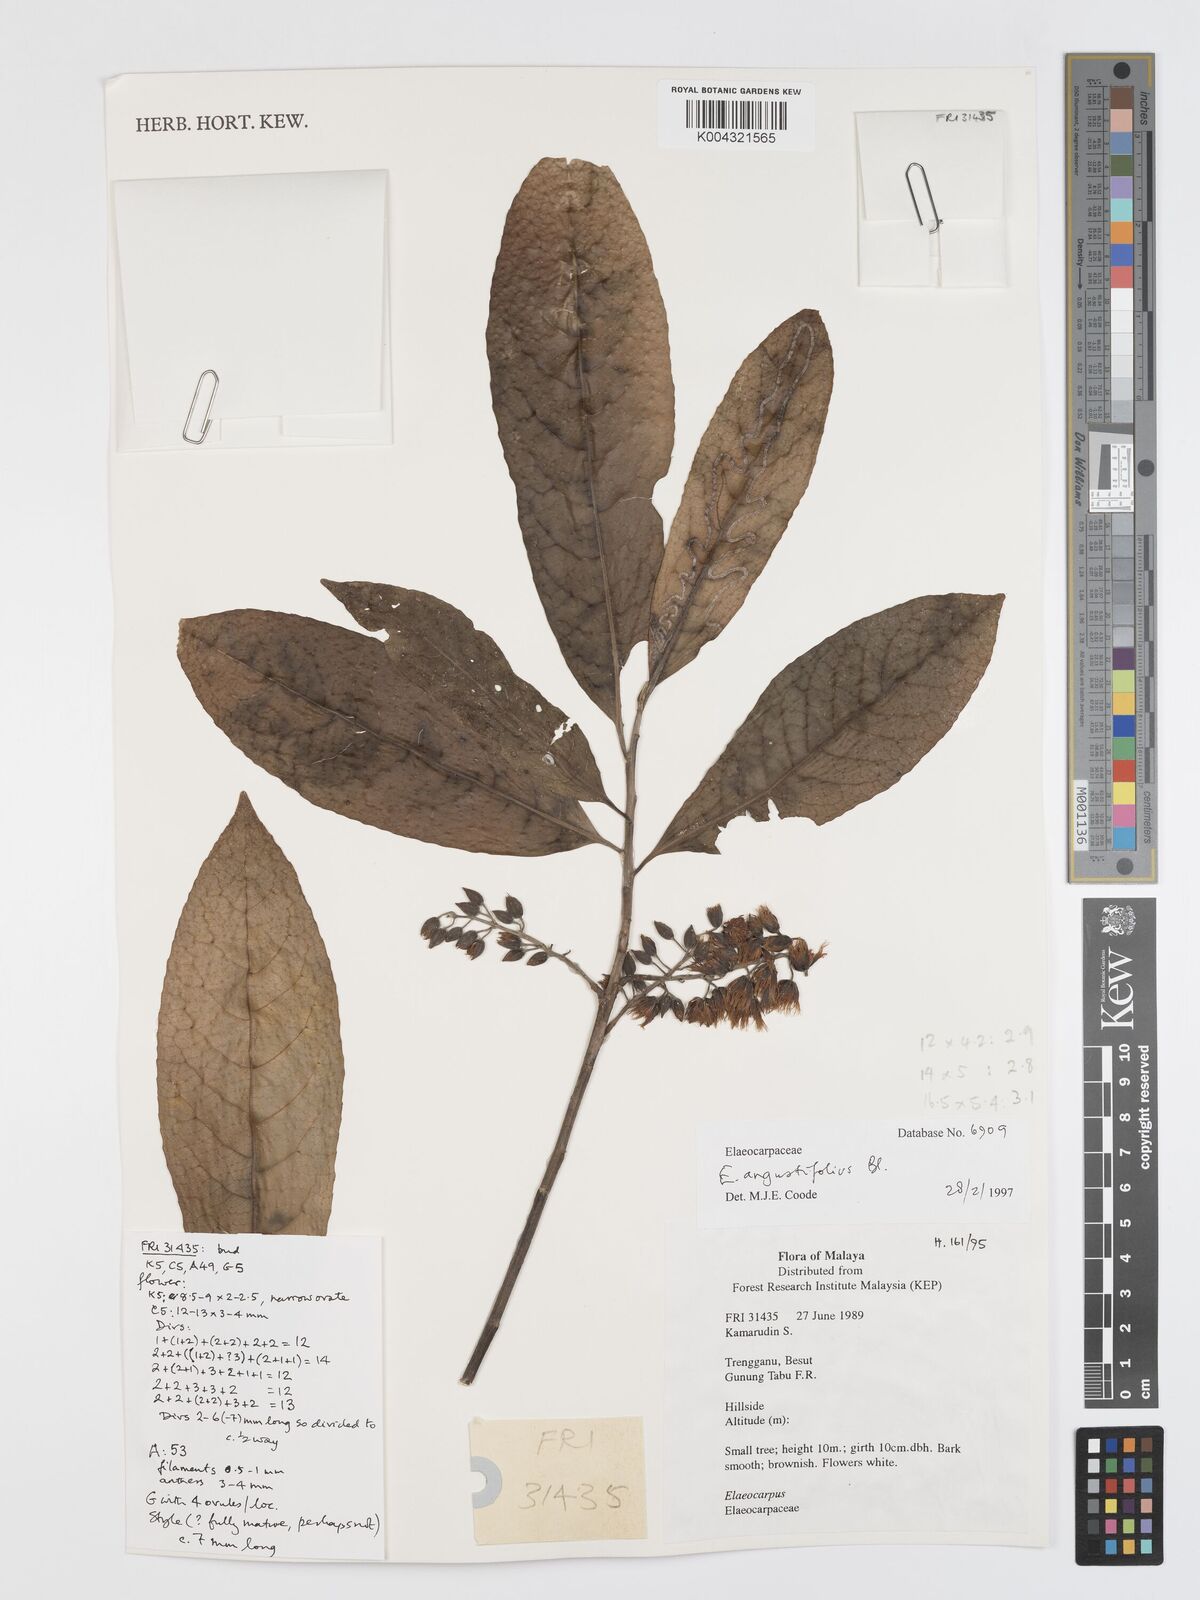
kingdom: Plantae
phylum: Tracheophyta
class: Magnoliopsida
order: Oxalidales
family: Elaeocarpaceae
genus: Elaeocarpus
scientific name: Elaeocarpus
